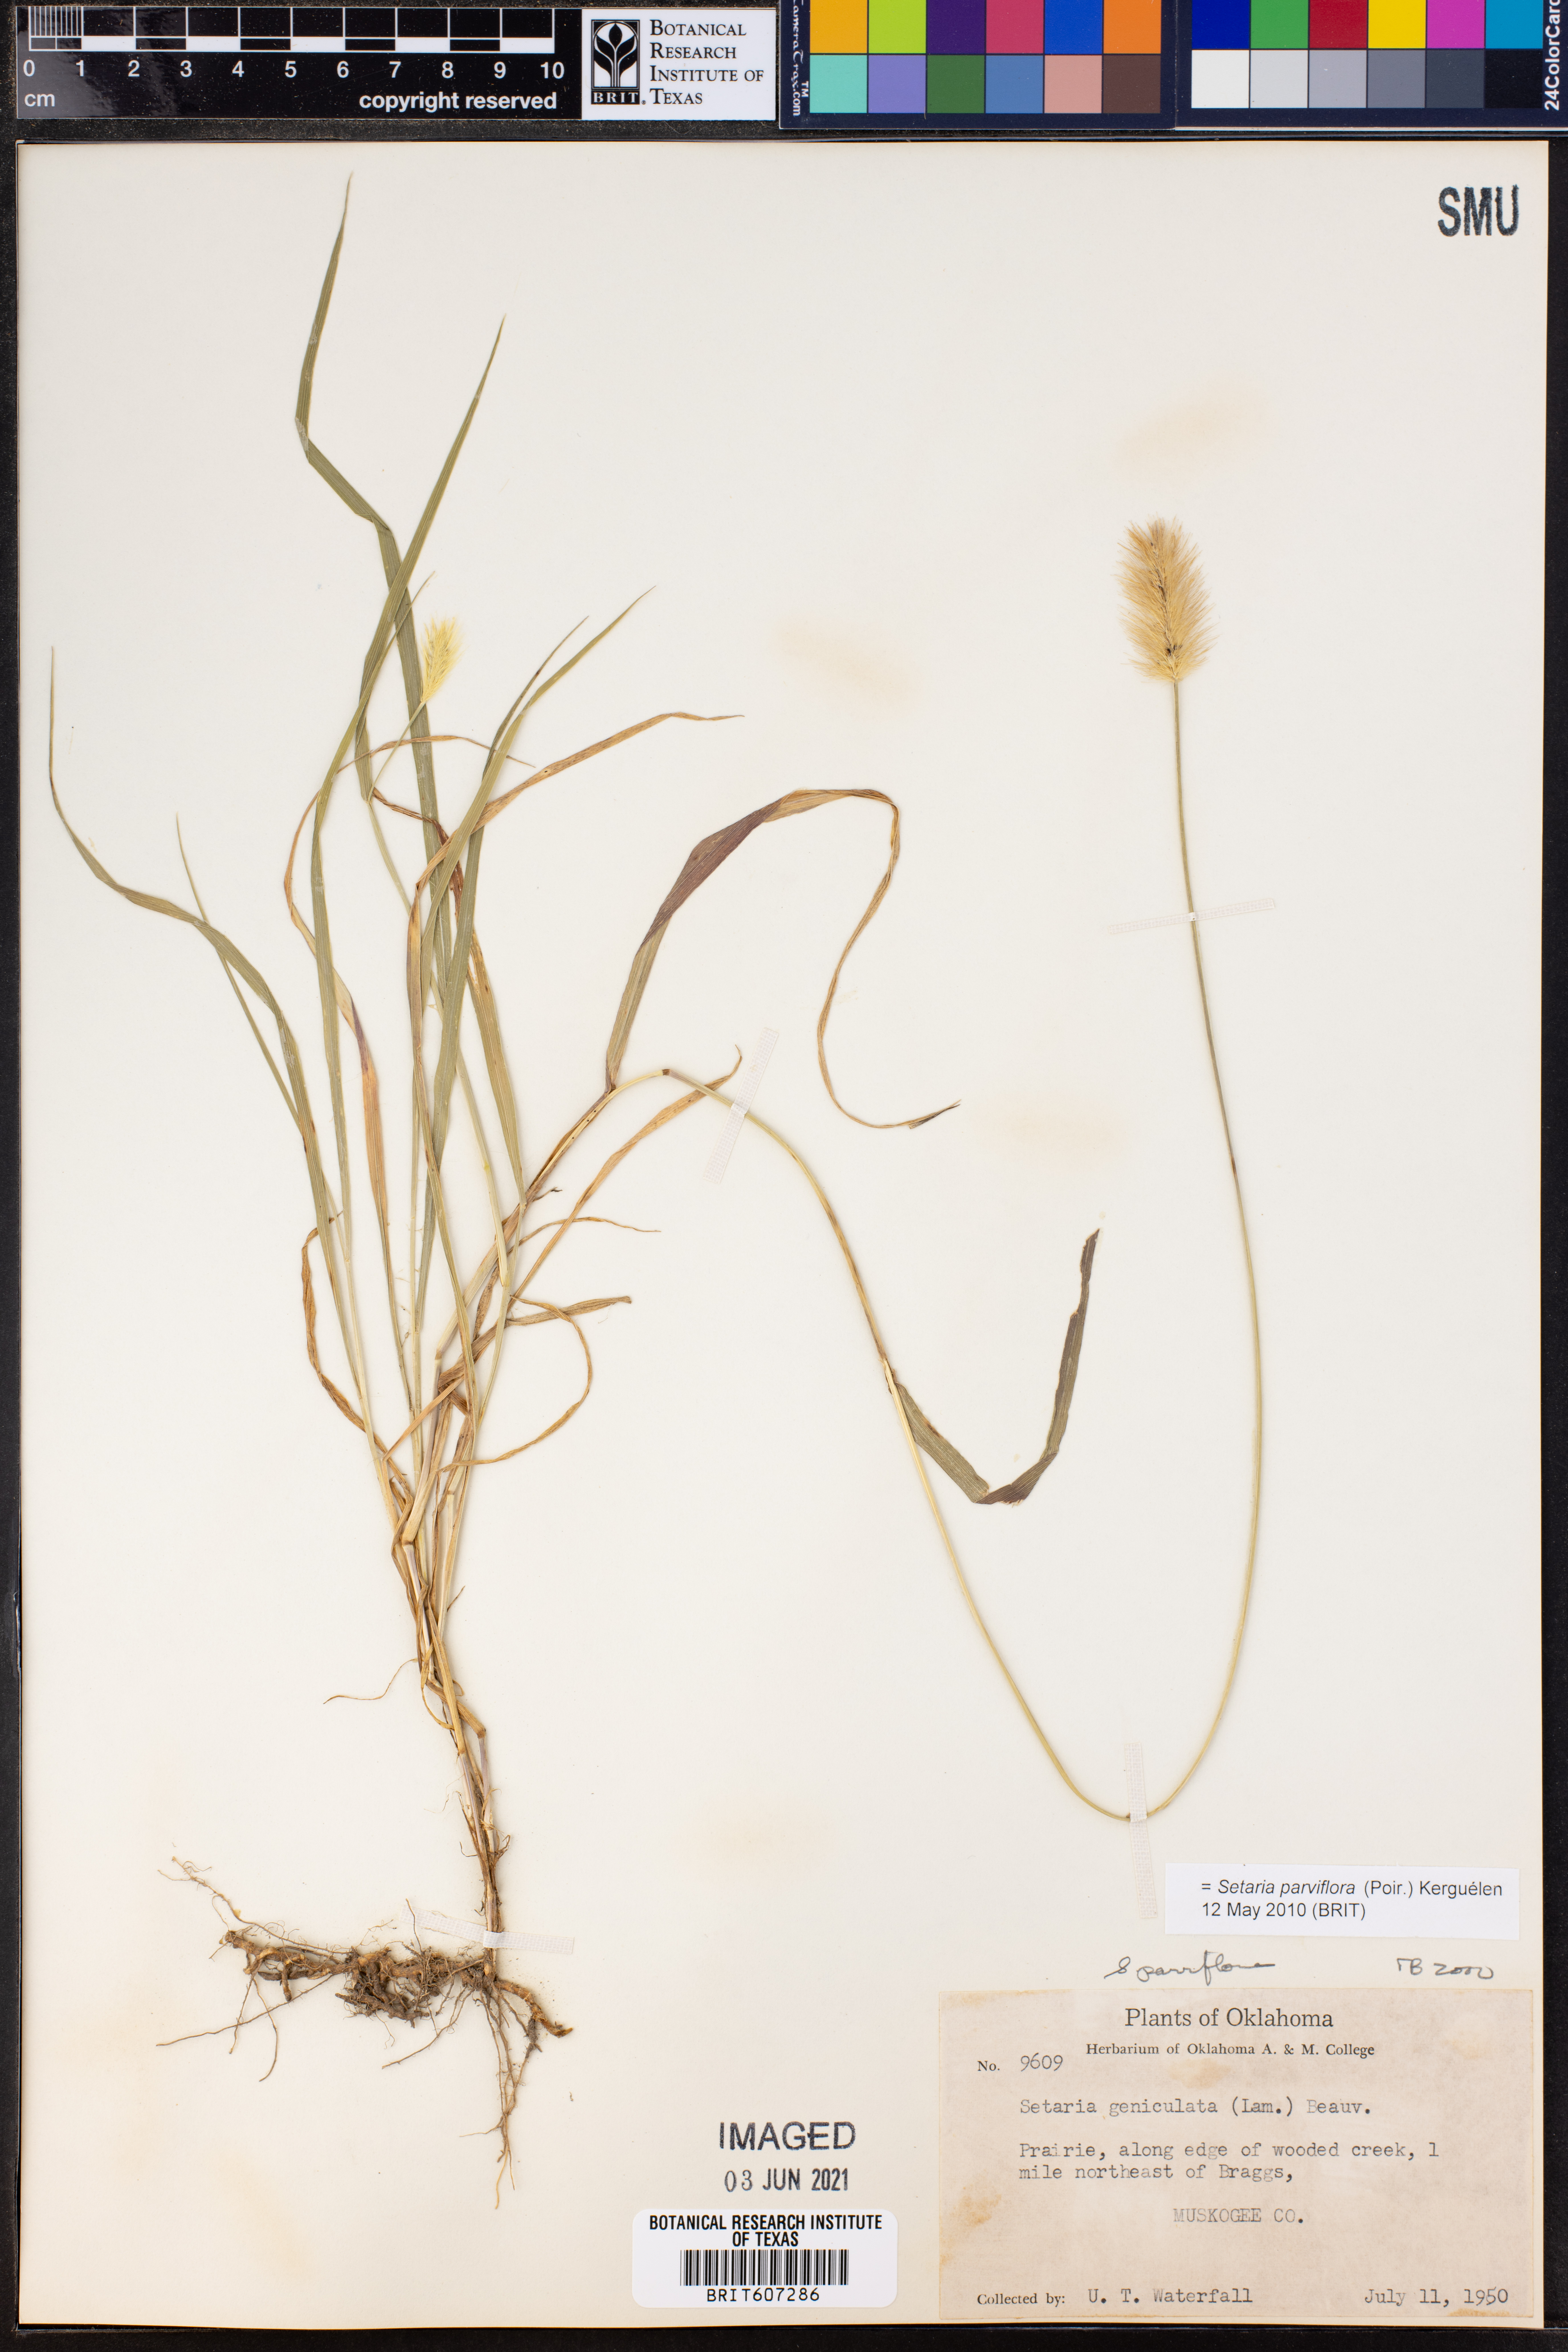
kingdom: Plantae
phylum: Tracheophyta
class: Liliopsida
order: Poales
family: Poaceae
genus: Setaria
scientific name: Setaria parviflora
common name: Knotroot bristle-grass
